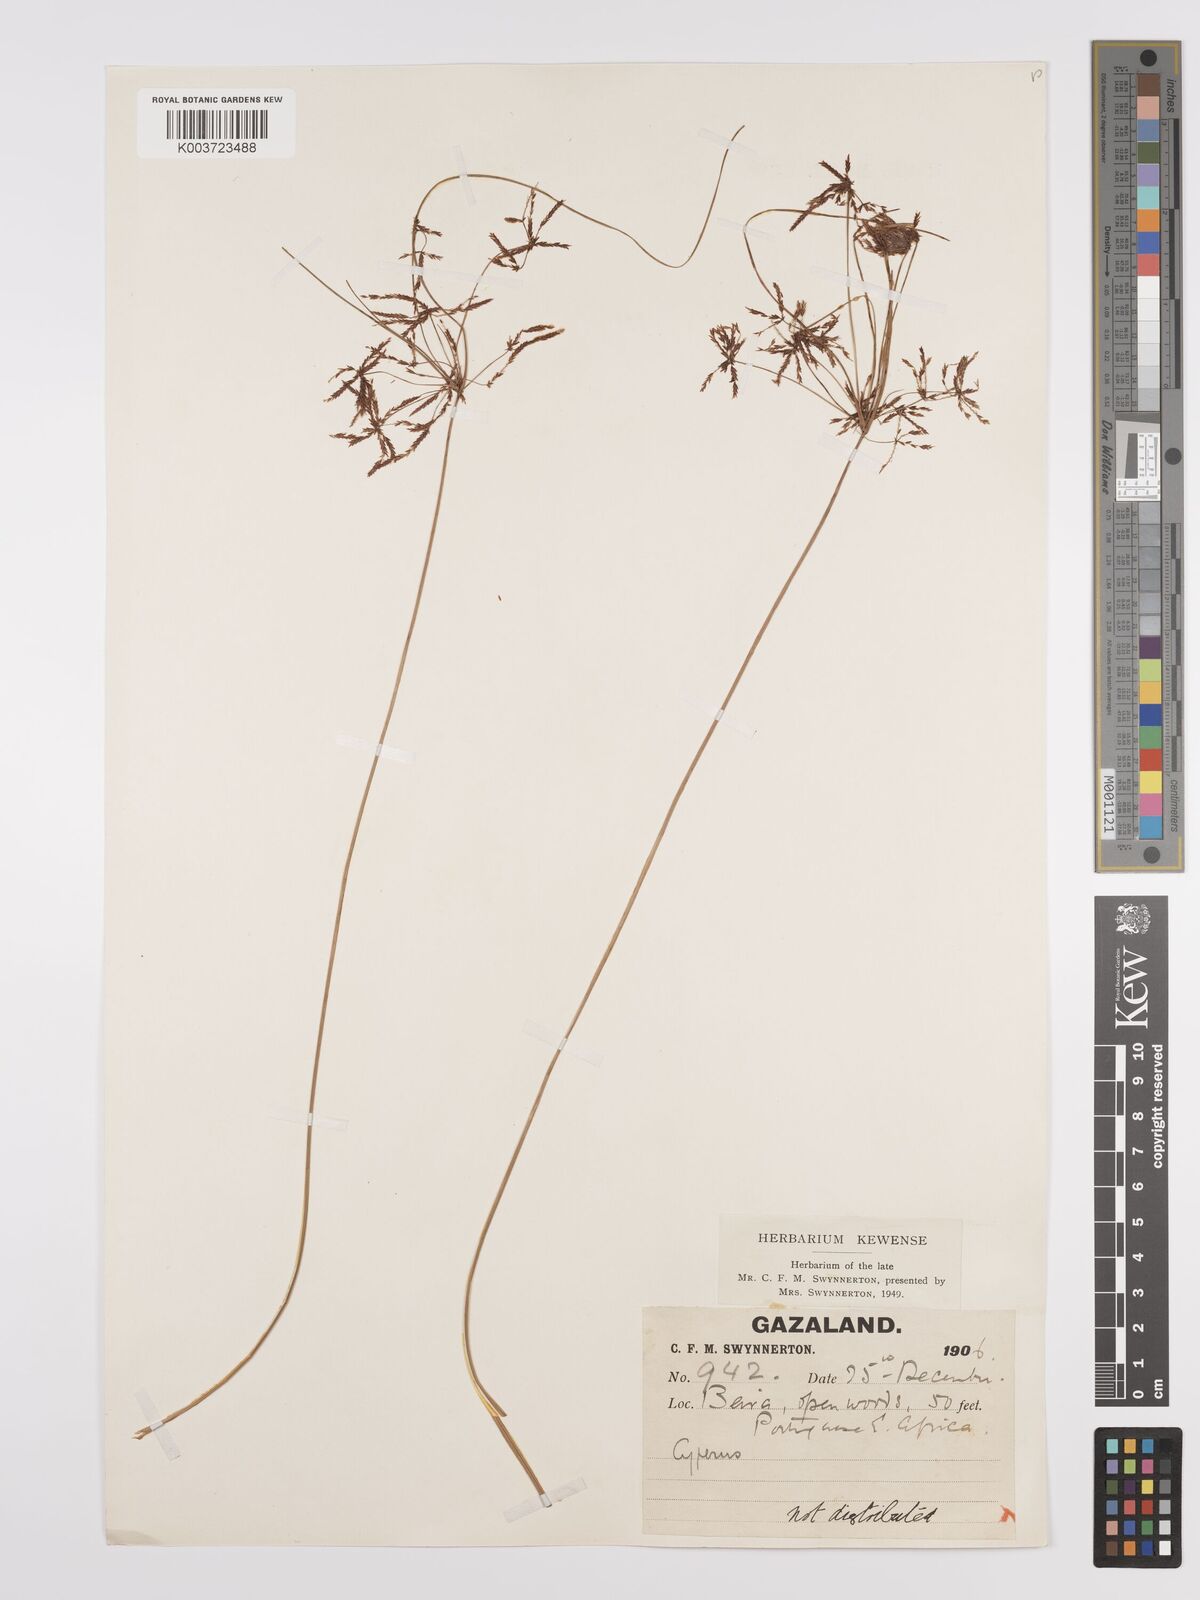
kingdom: Plantae
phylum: Tracheophyta
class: Liliopsida
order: Poales
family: Cyperaceae
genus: Cyperus
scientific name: Cyperus tenax
